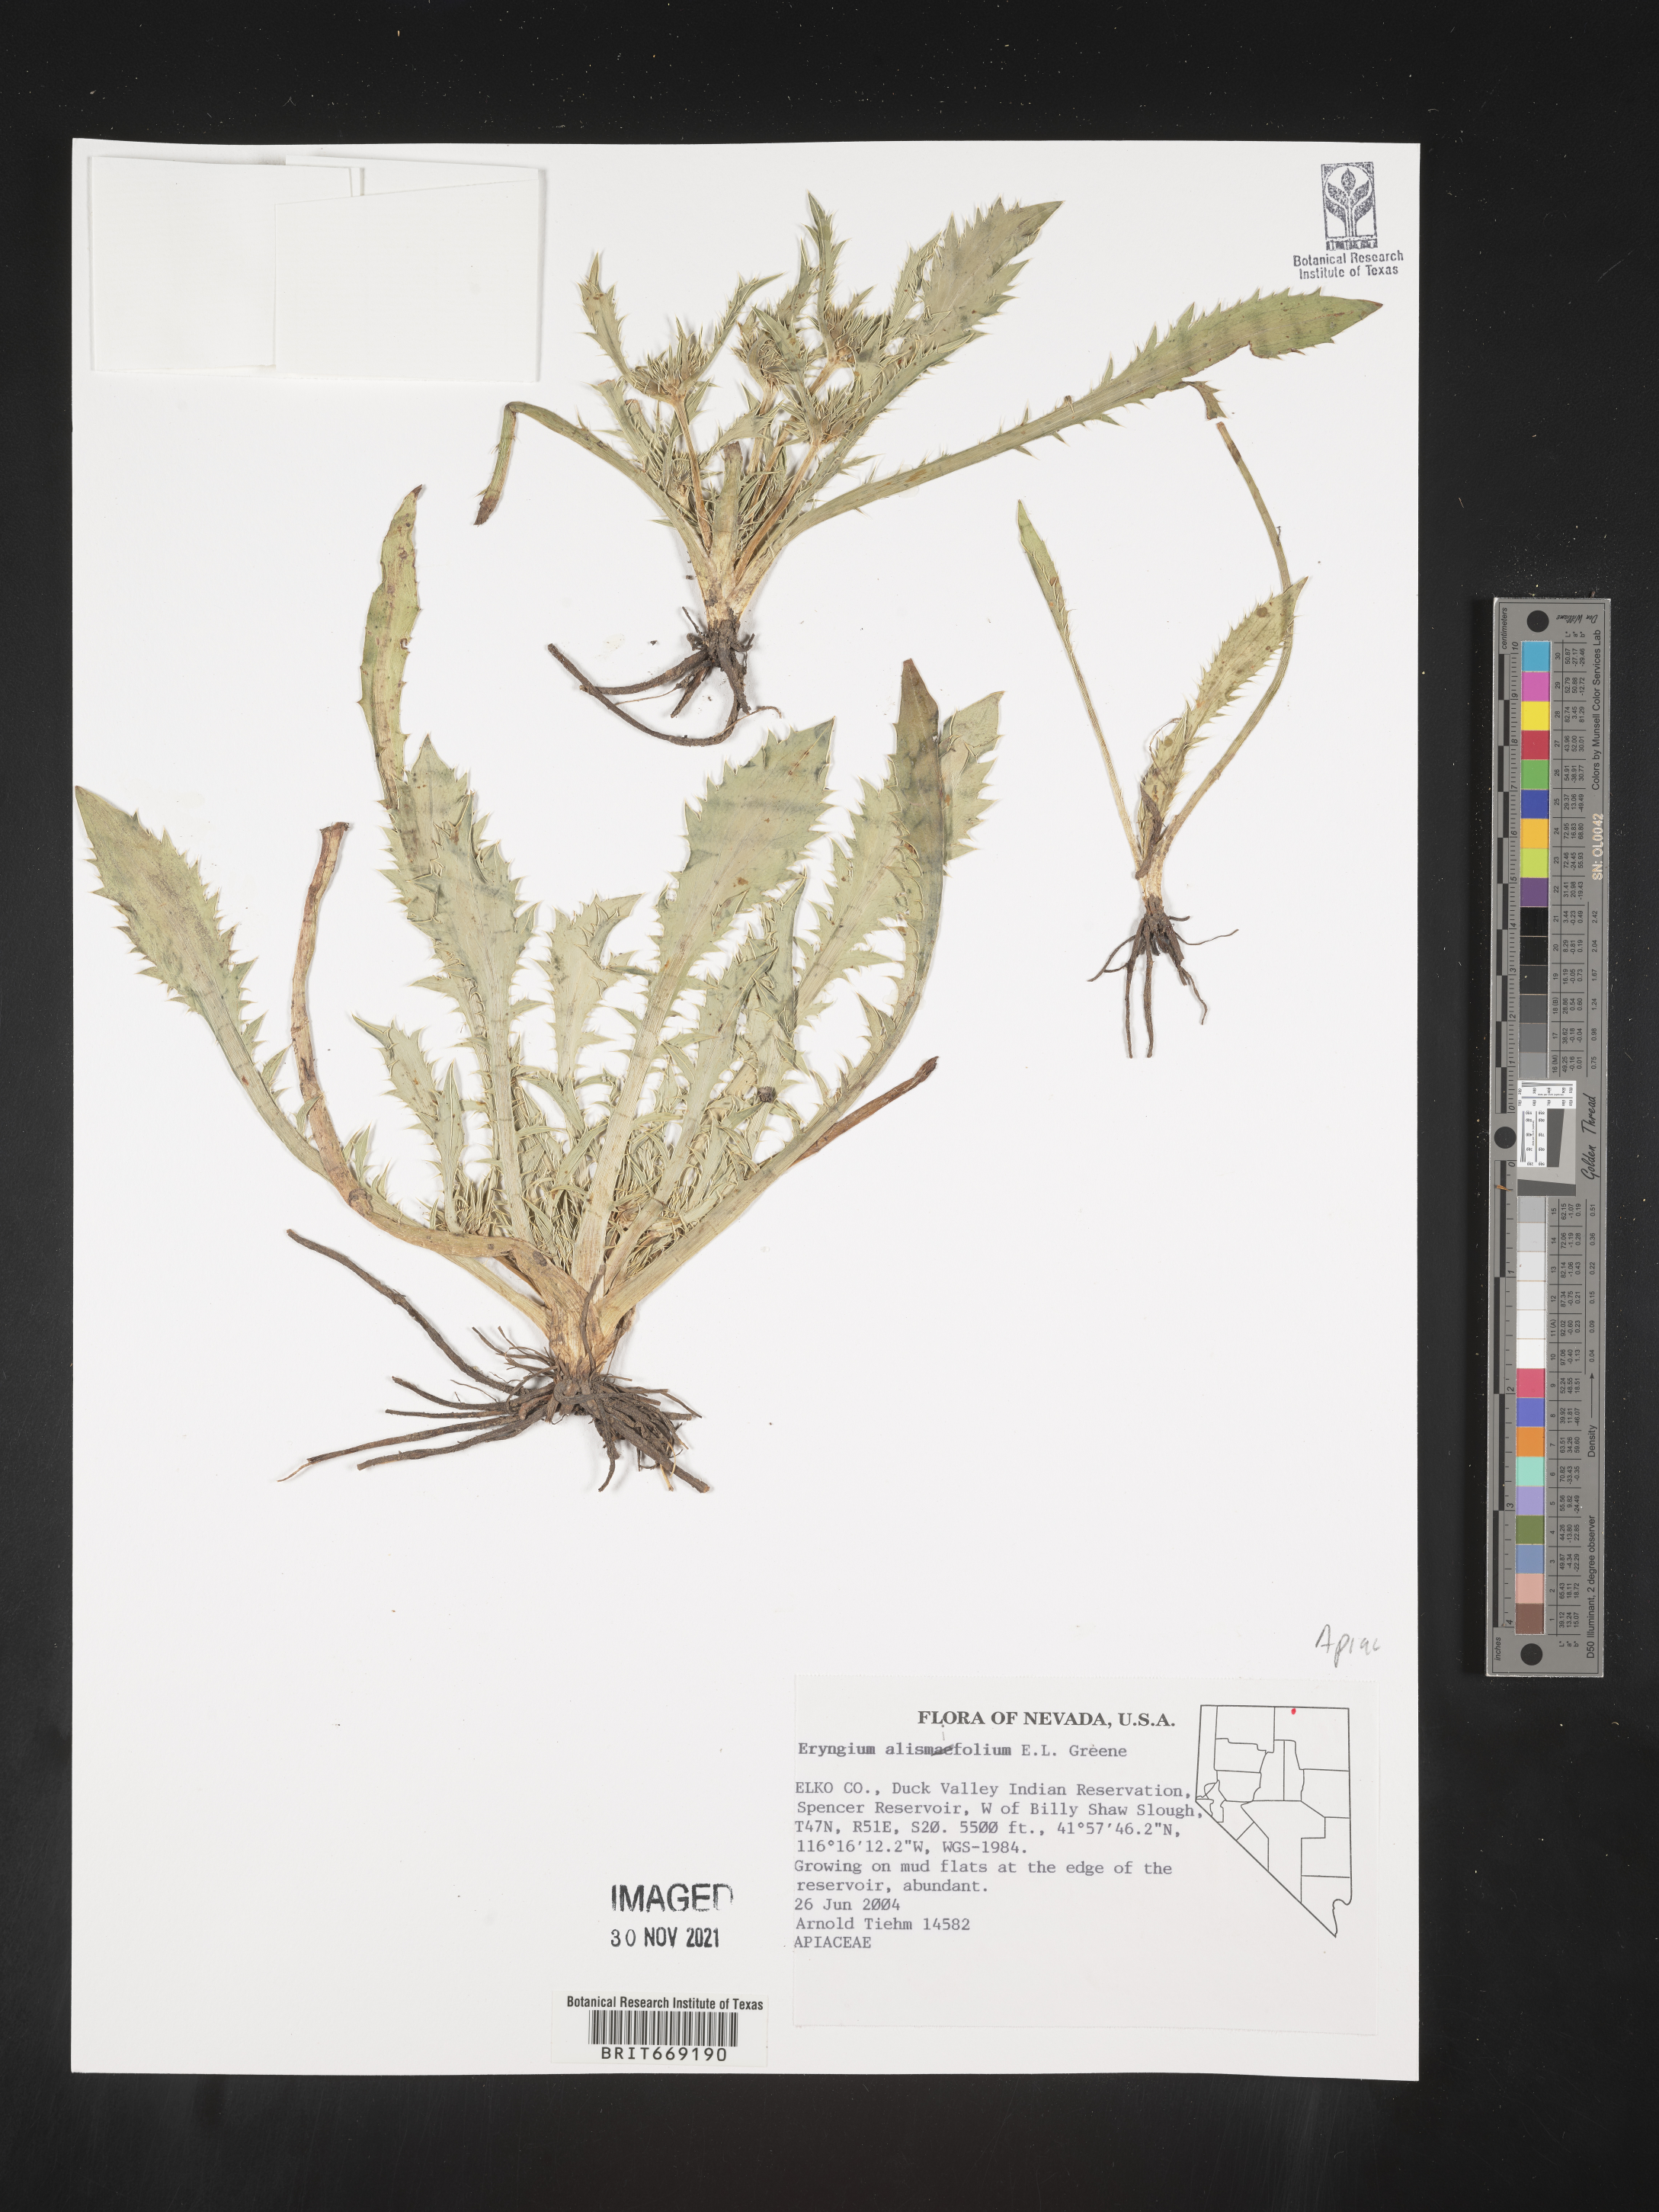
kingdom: Plantae
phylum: Tracheophyta
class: Magnoliopsida
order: Apiales
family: Apiaceae
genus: Eryngium
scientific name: Eryngium alismifolium
